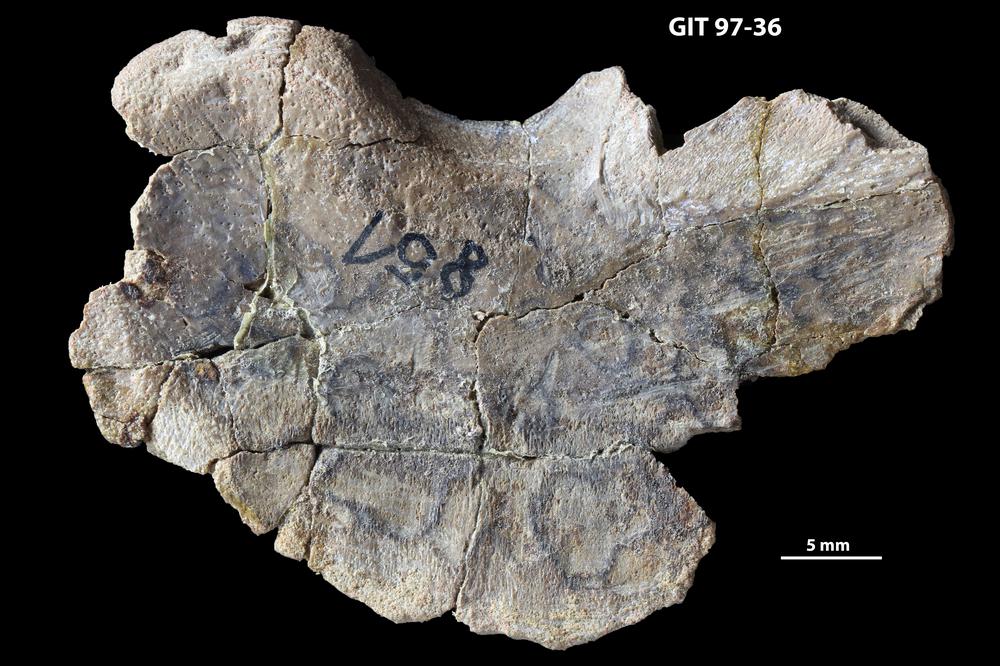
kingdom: Animalia
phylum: Chordata
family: Holonematidae
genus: Holonema
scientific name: Holonema
